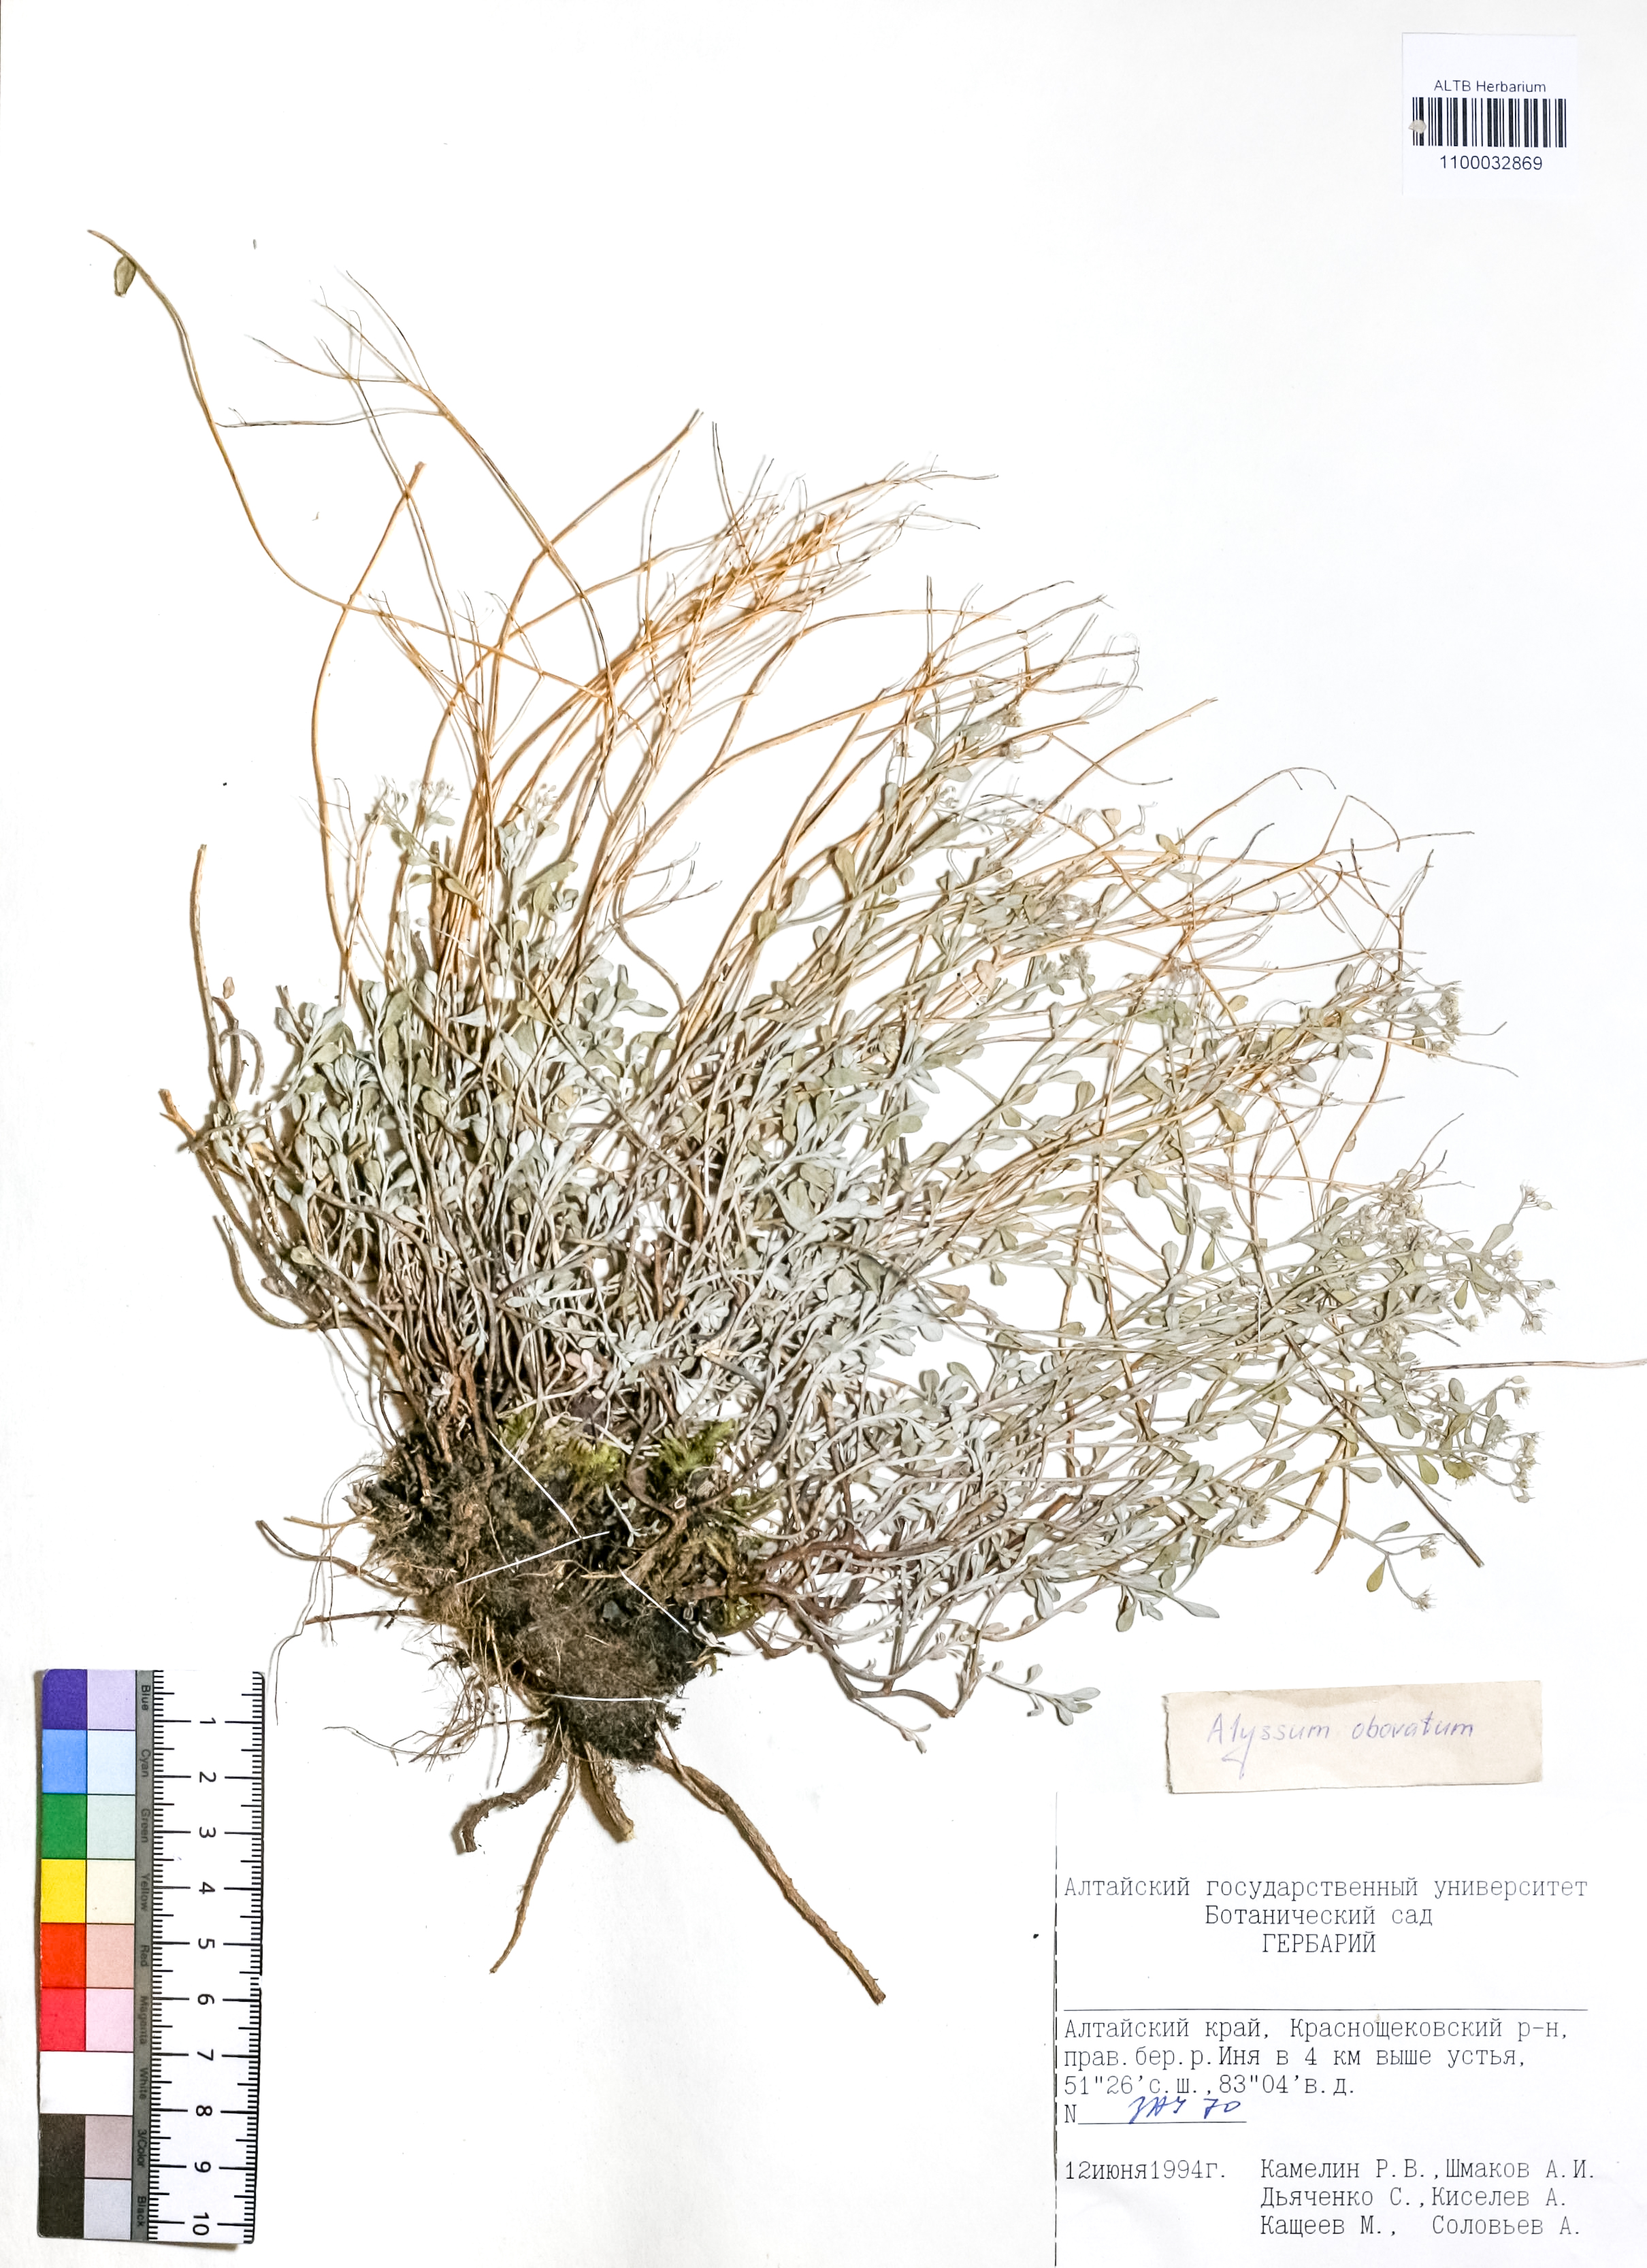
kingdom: Plantae
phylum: Tracheophyta
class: Magnoliopsida
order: Brassicales
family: Brassicaceae
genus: Odontarrhena
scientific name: Odontarrhena obovata
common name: American alyssum
